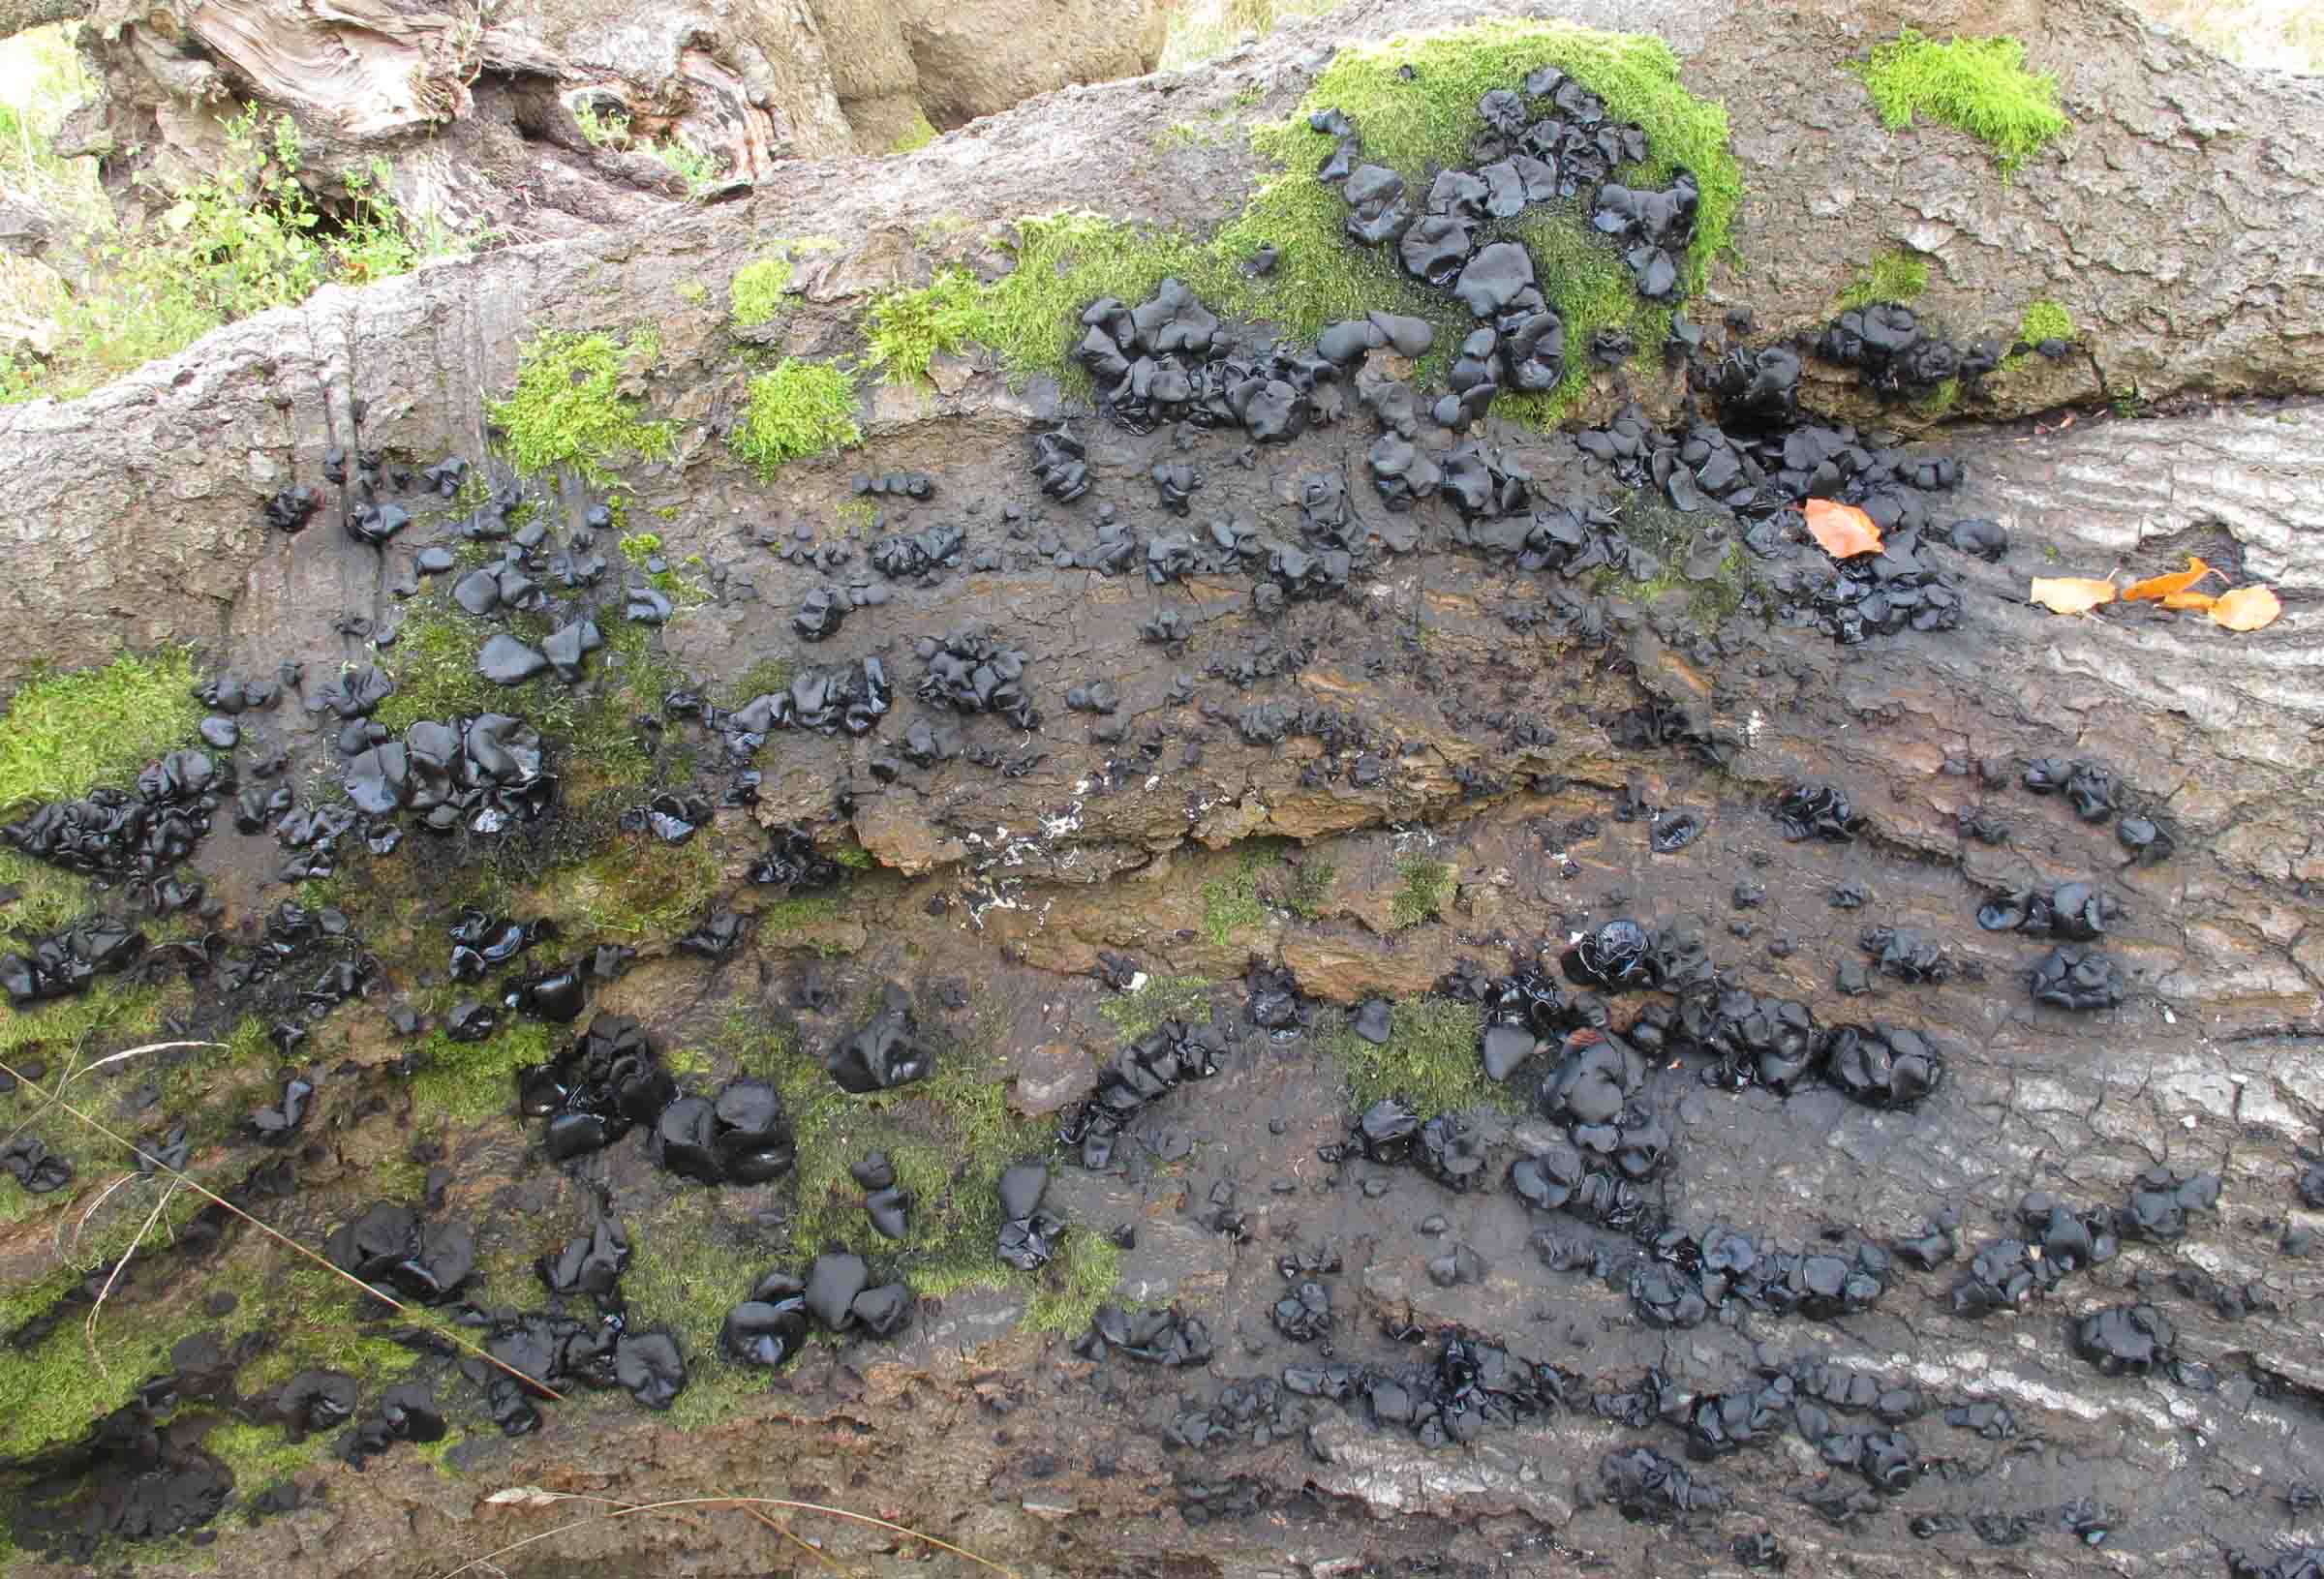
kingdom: Fungi
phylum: Ascomycota
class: Leotiomycetes
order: Phacidiales
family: Phacidiaceae
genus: Bulgaria
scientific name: Bulgaria inquinans
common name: afsmittende topsvamp
